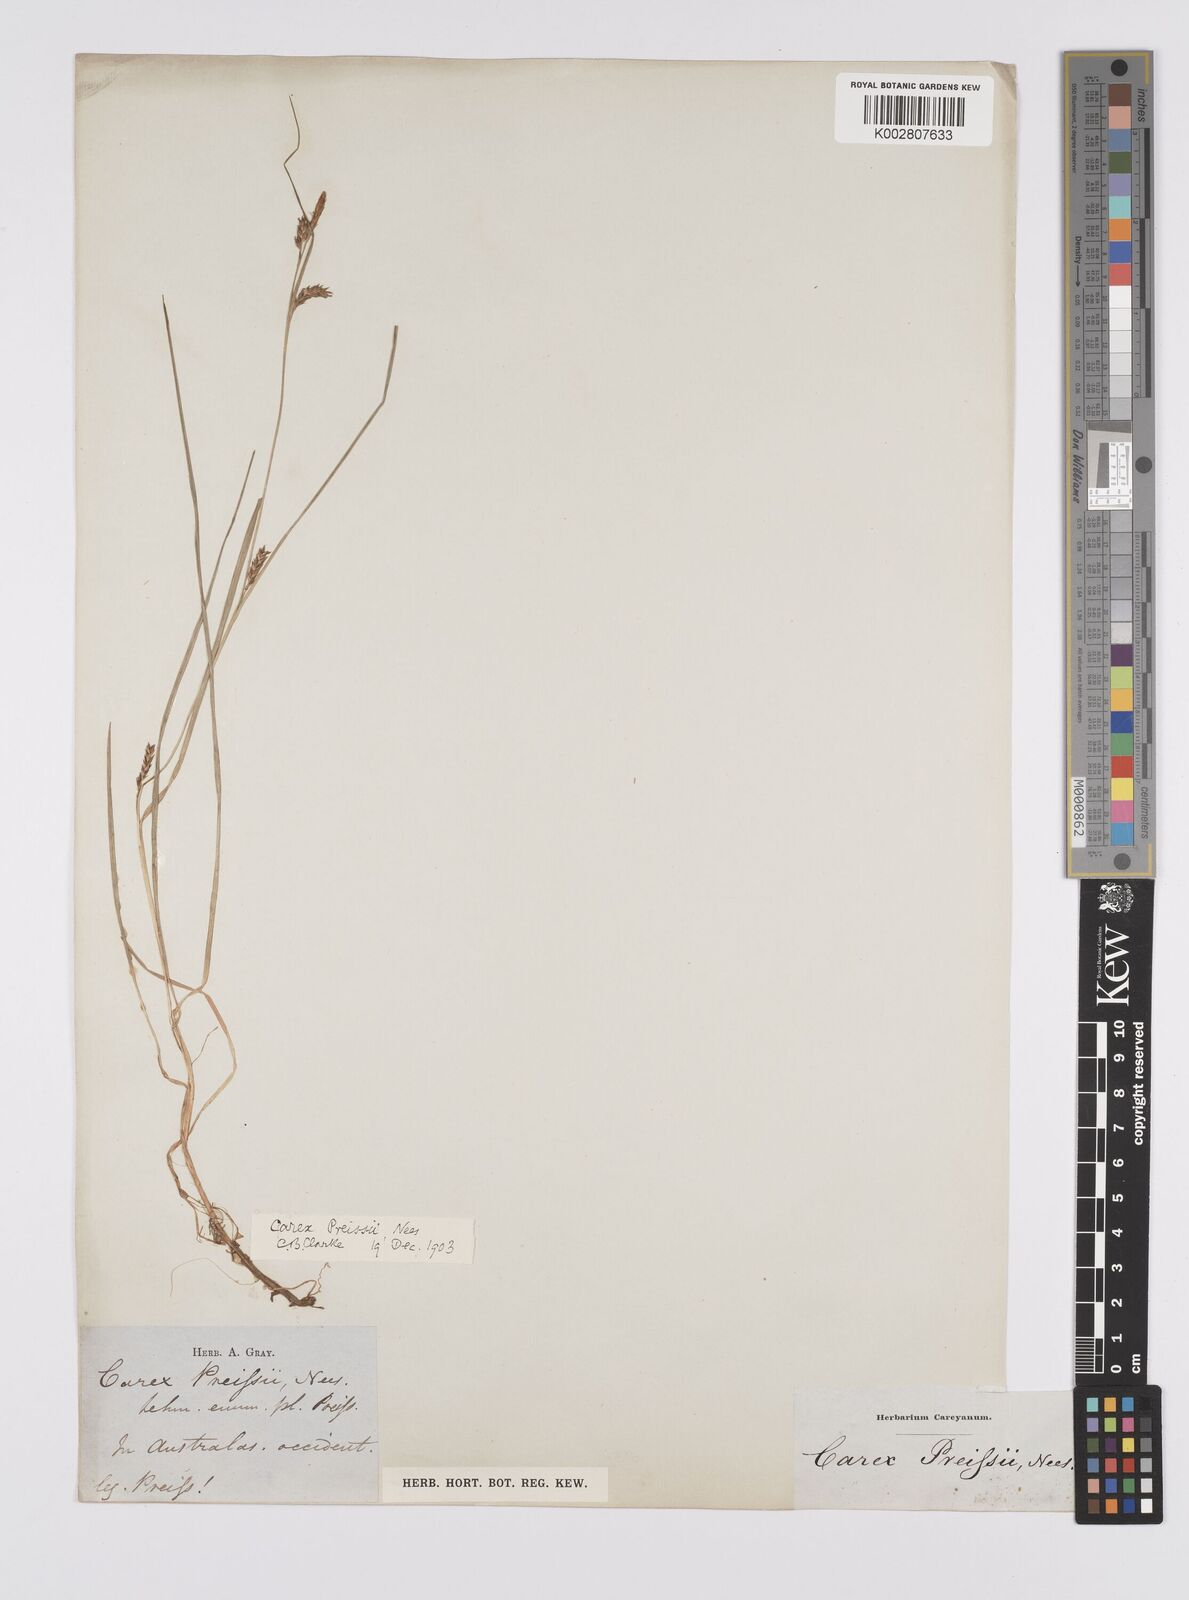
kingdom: Plantae
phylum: Tracheophyta
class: Liliopsida
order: Poales
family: Cyperaceae
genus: Carex
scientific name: Carex preissii
